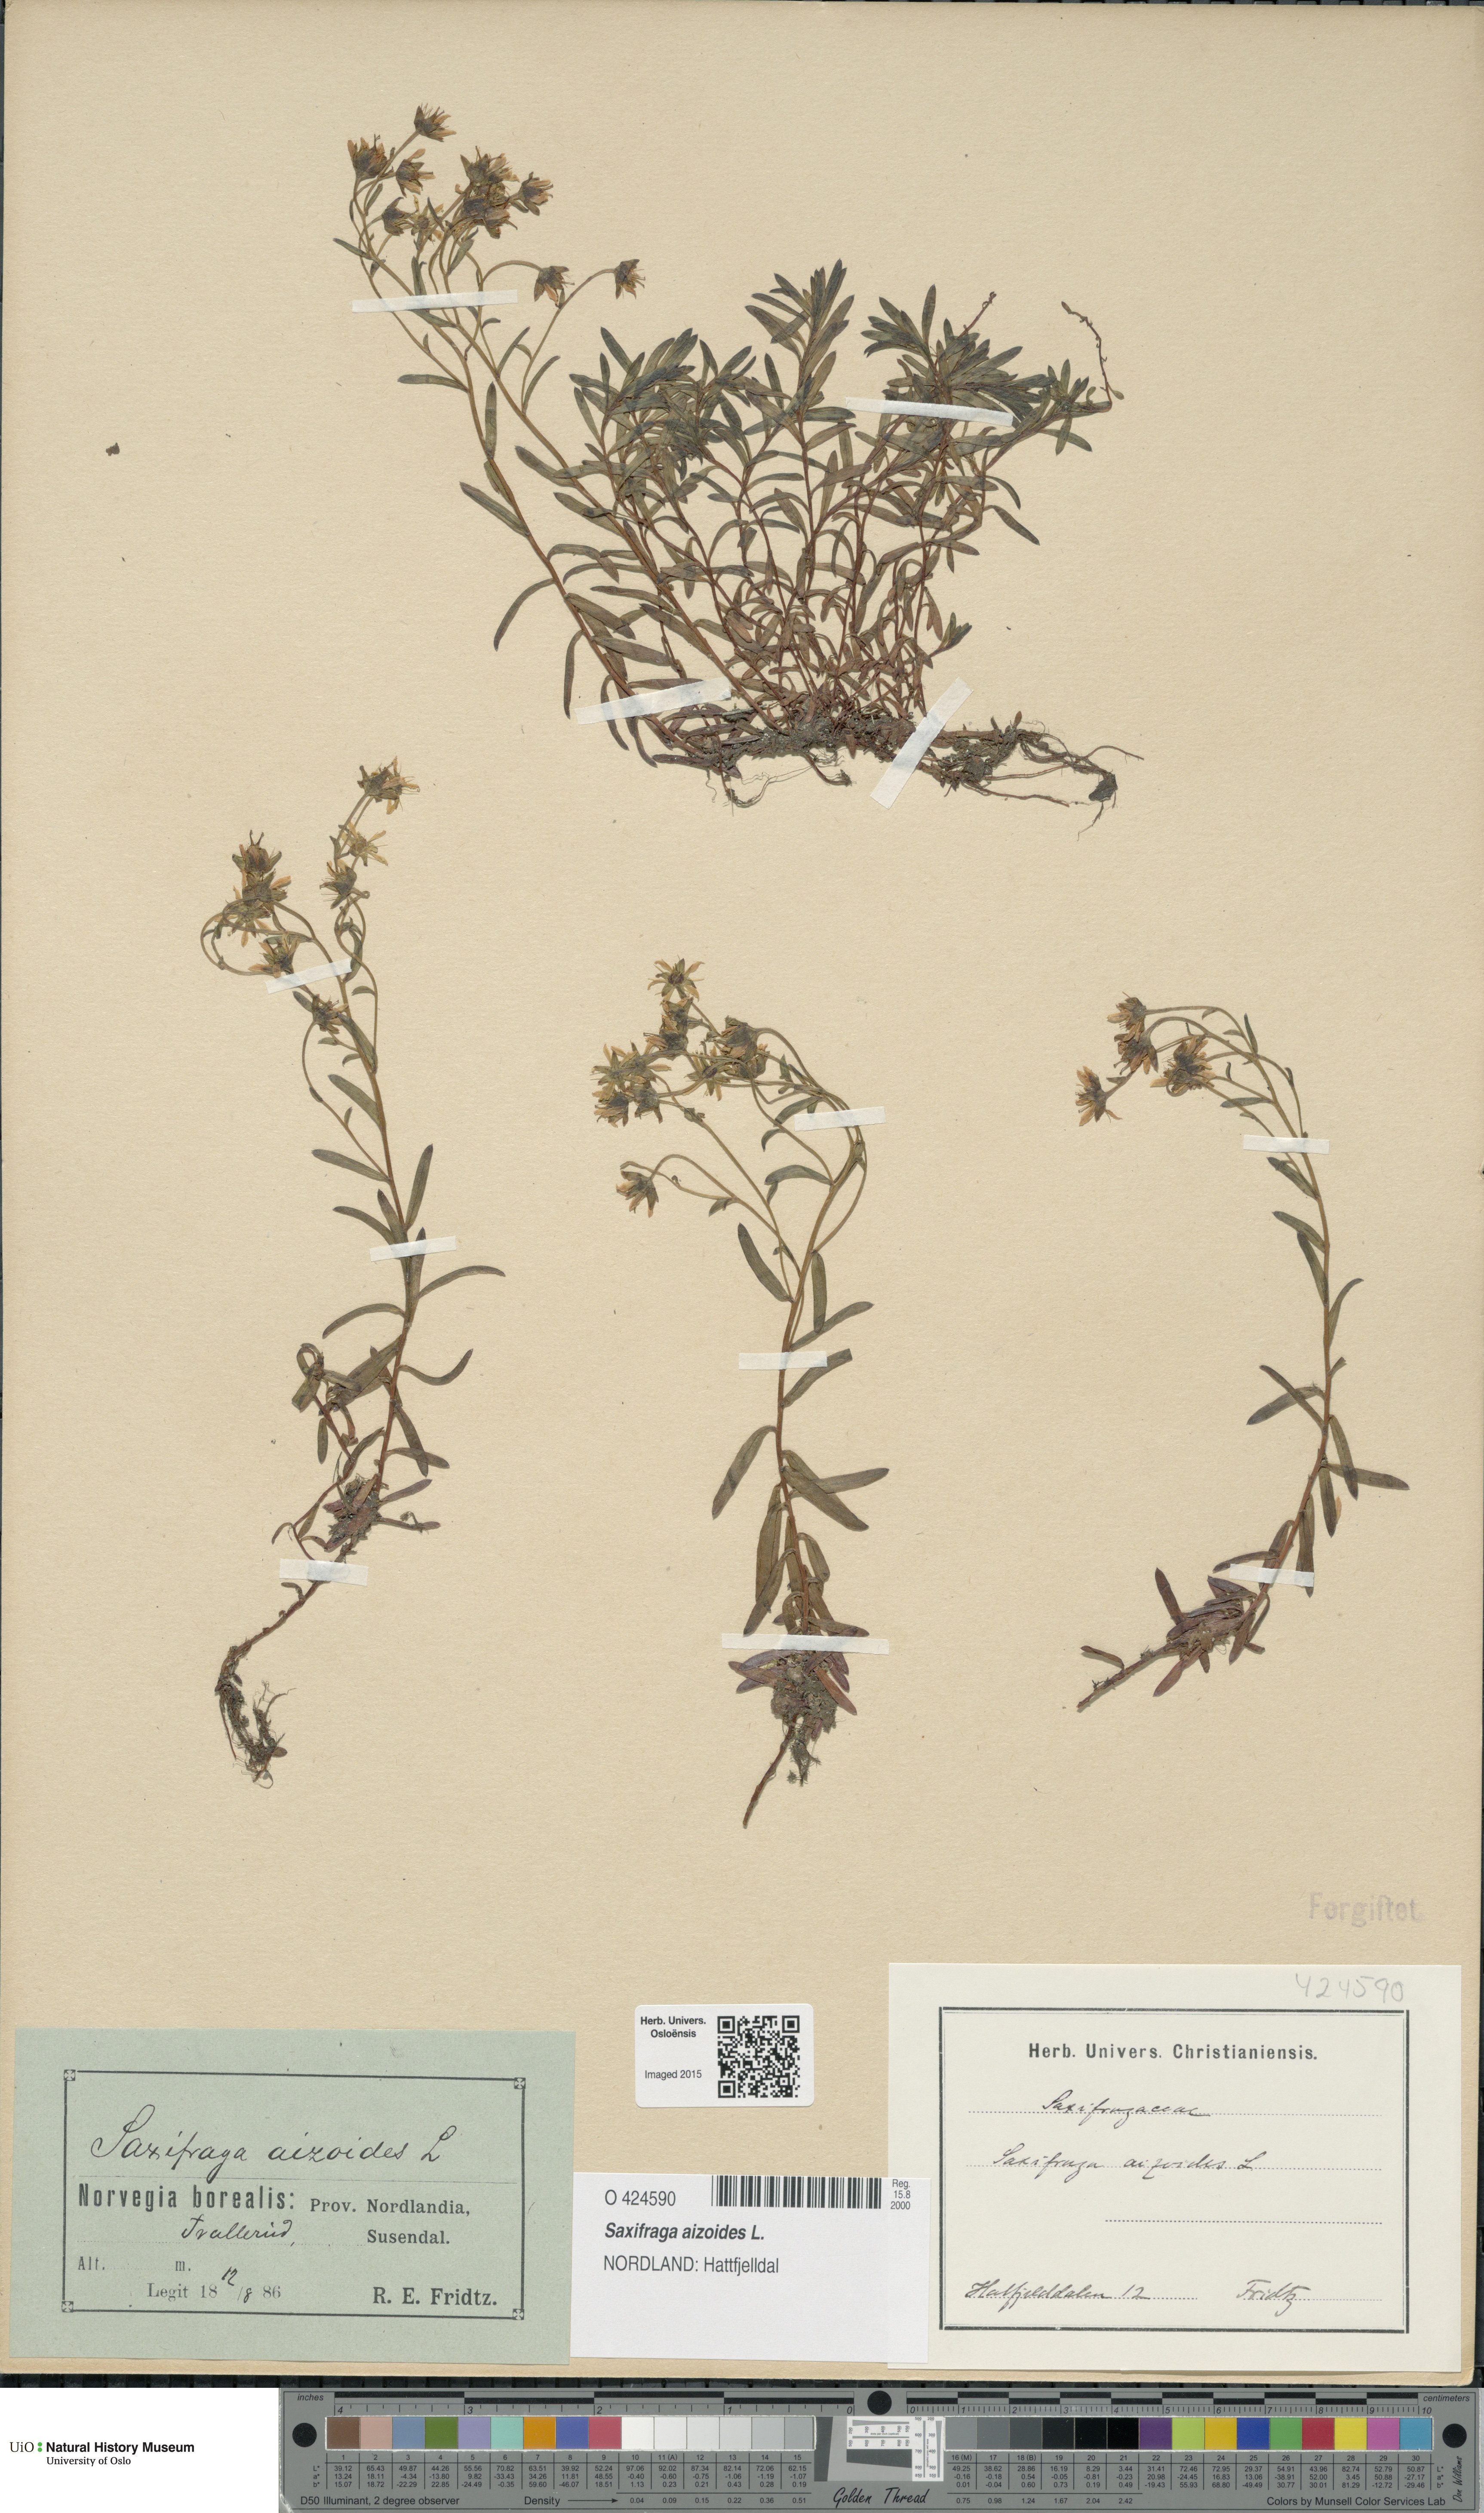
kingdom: Plantae
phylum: Tracheophyta
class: Magnoliopsida
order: Saxifragales
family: Saxifragaceae
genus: Saxifraga
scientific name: Saxifraga aizoides
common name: Yellow mountain saxifrage
